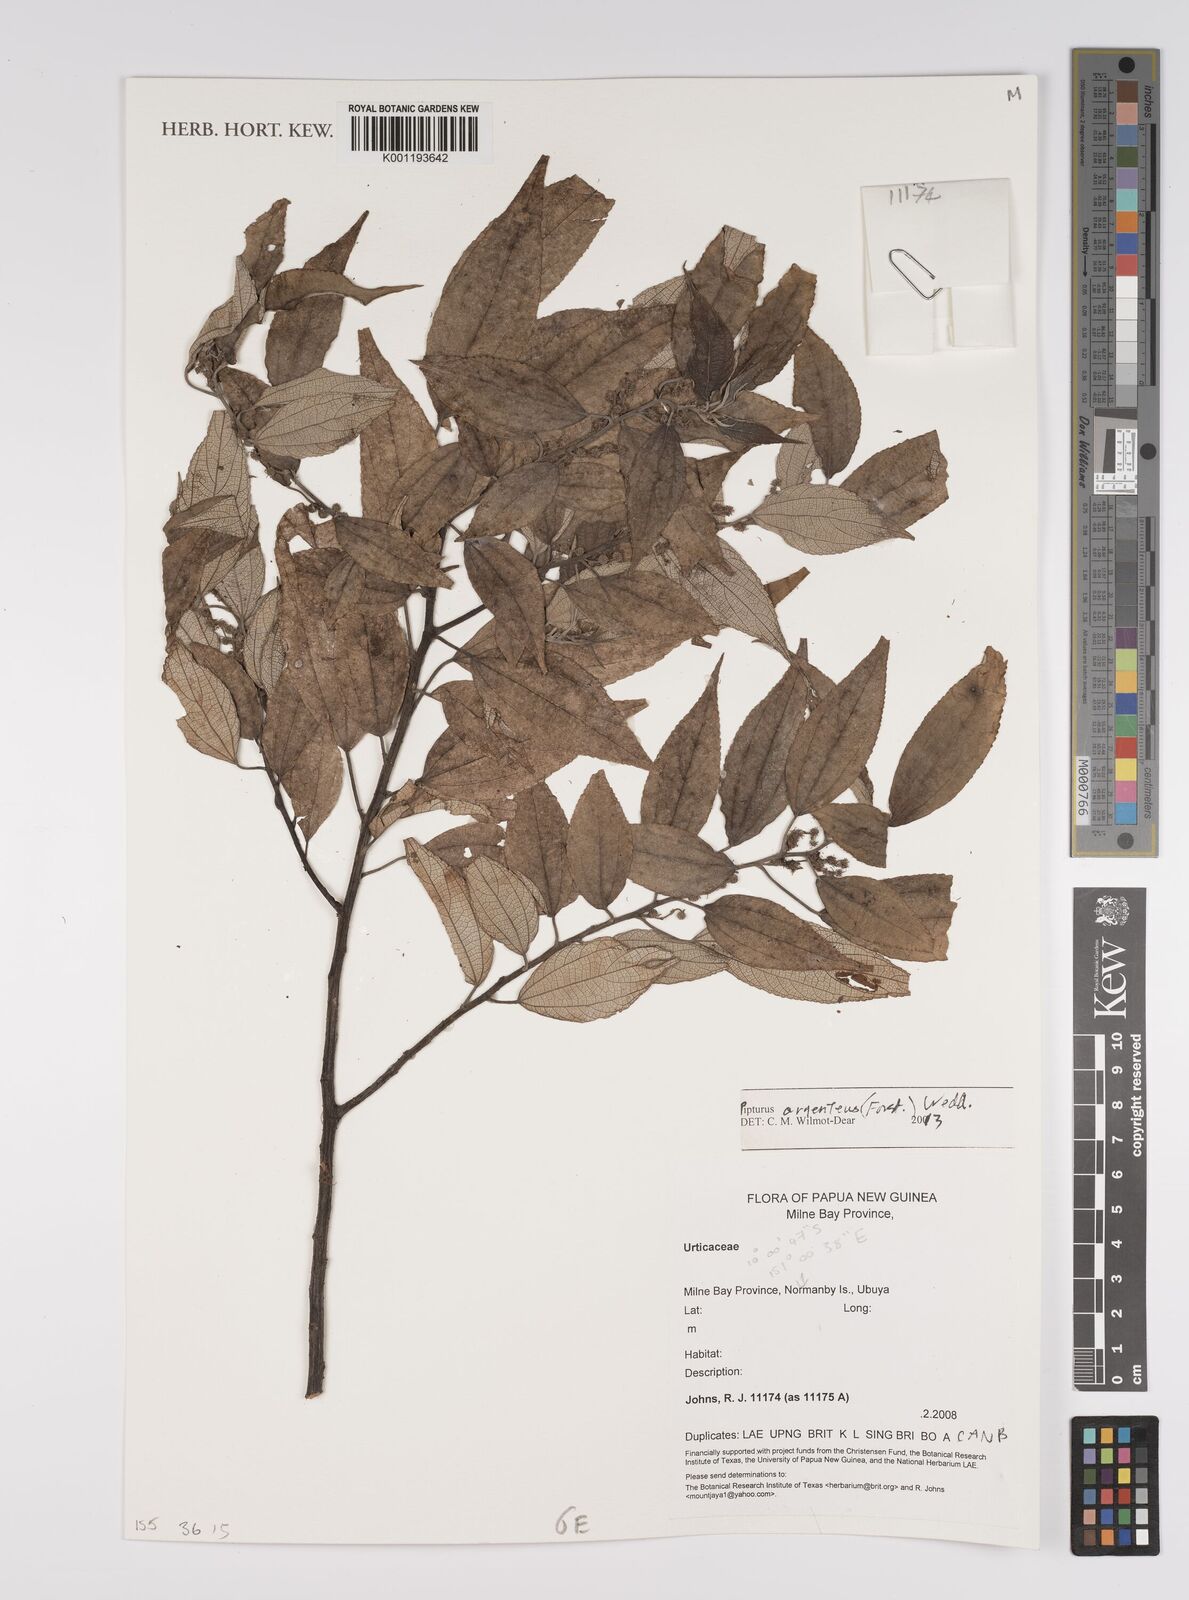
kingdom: Plantae
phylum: Tracheophyta
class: Magnoliopsida
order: Rosales
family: Urticaceae
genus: Pipturus
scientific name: Pipturus argenteus
